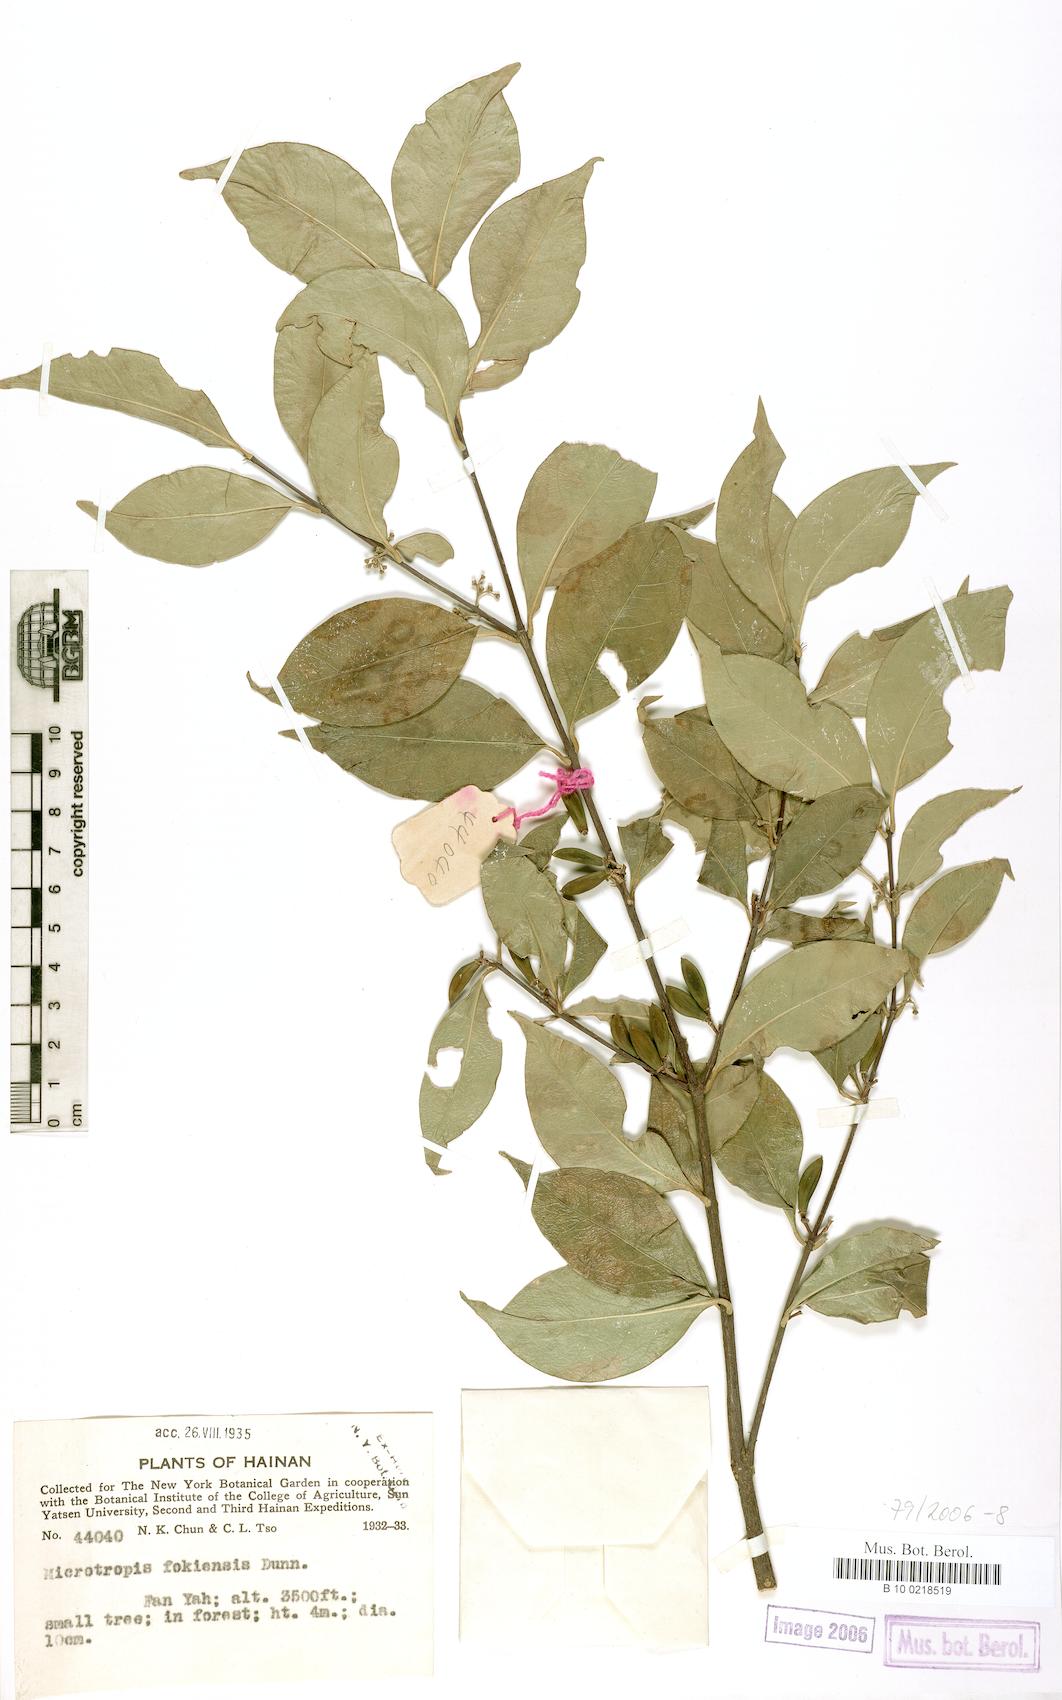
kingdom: Plantae
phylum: Tracheophyta
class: Magnoliopsida
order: Celastrales
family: Celastraceae
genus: Microtropis
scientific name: Microtropis fokienensis
